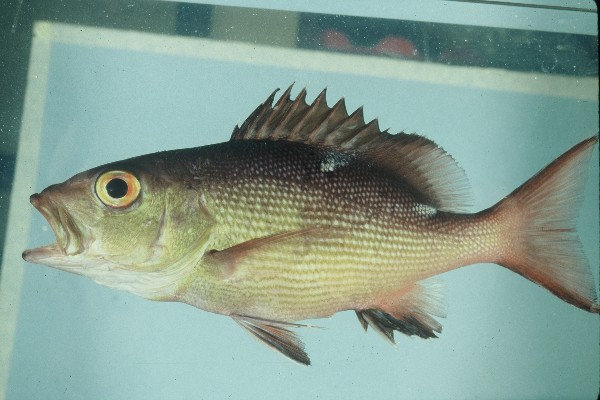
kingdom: Animalia
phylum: Chordata
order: Perciformes
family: Lutjanidae
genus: Lutjanus
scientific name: Lutjanus bohar
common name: Red bass
